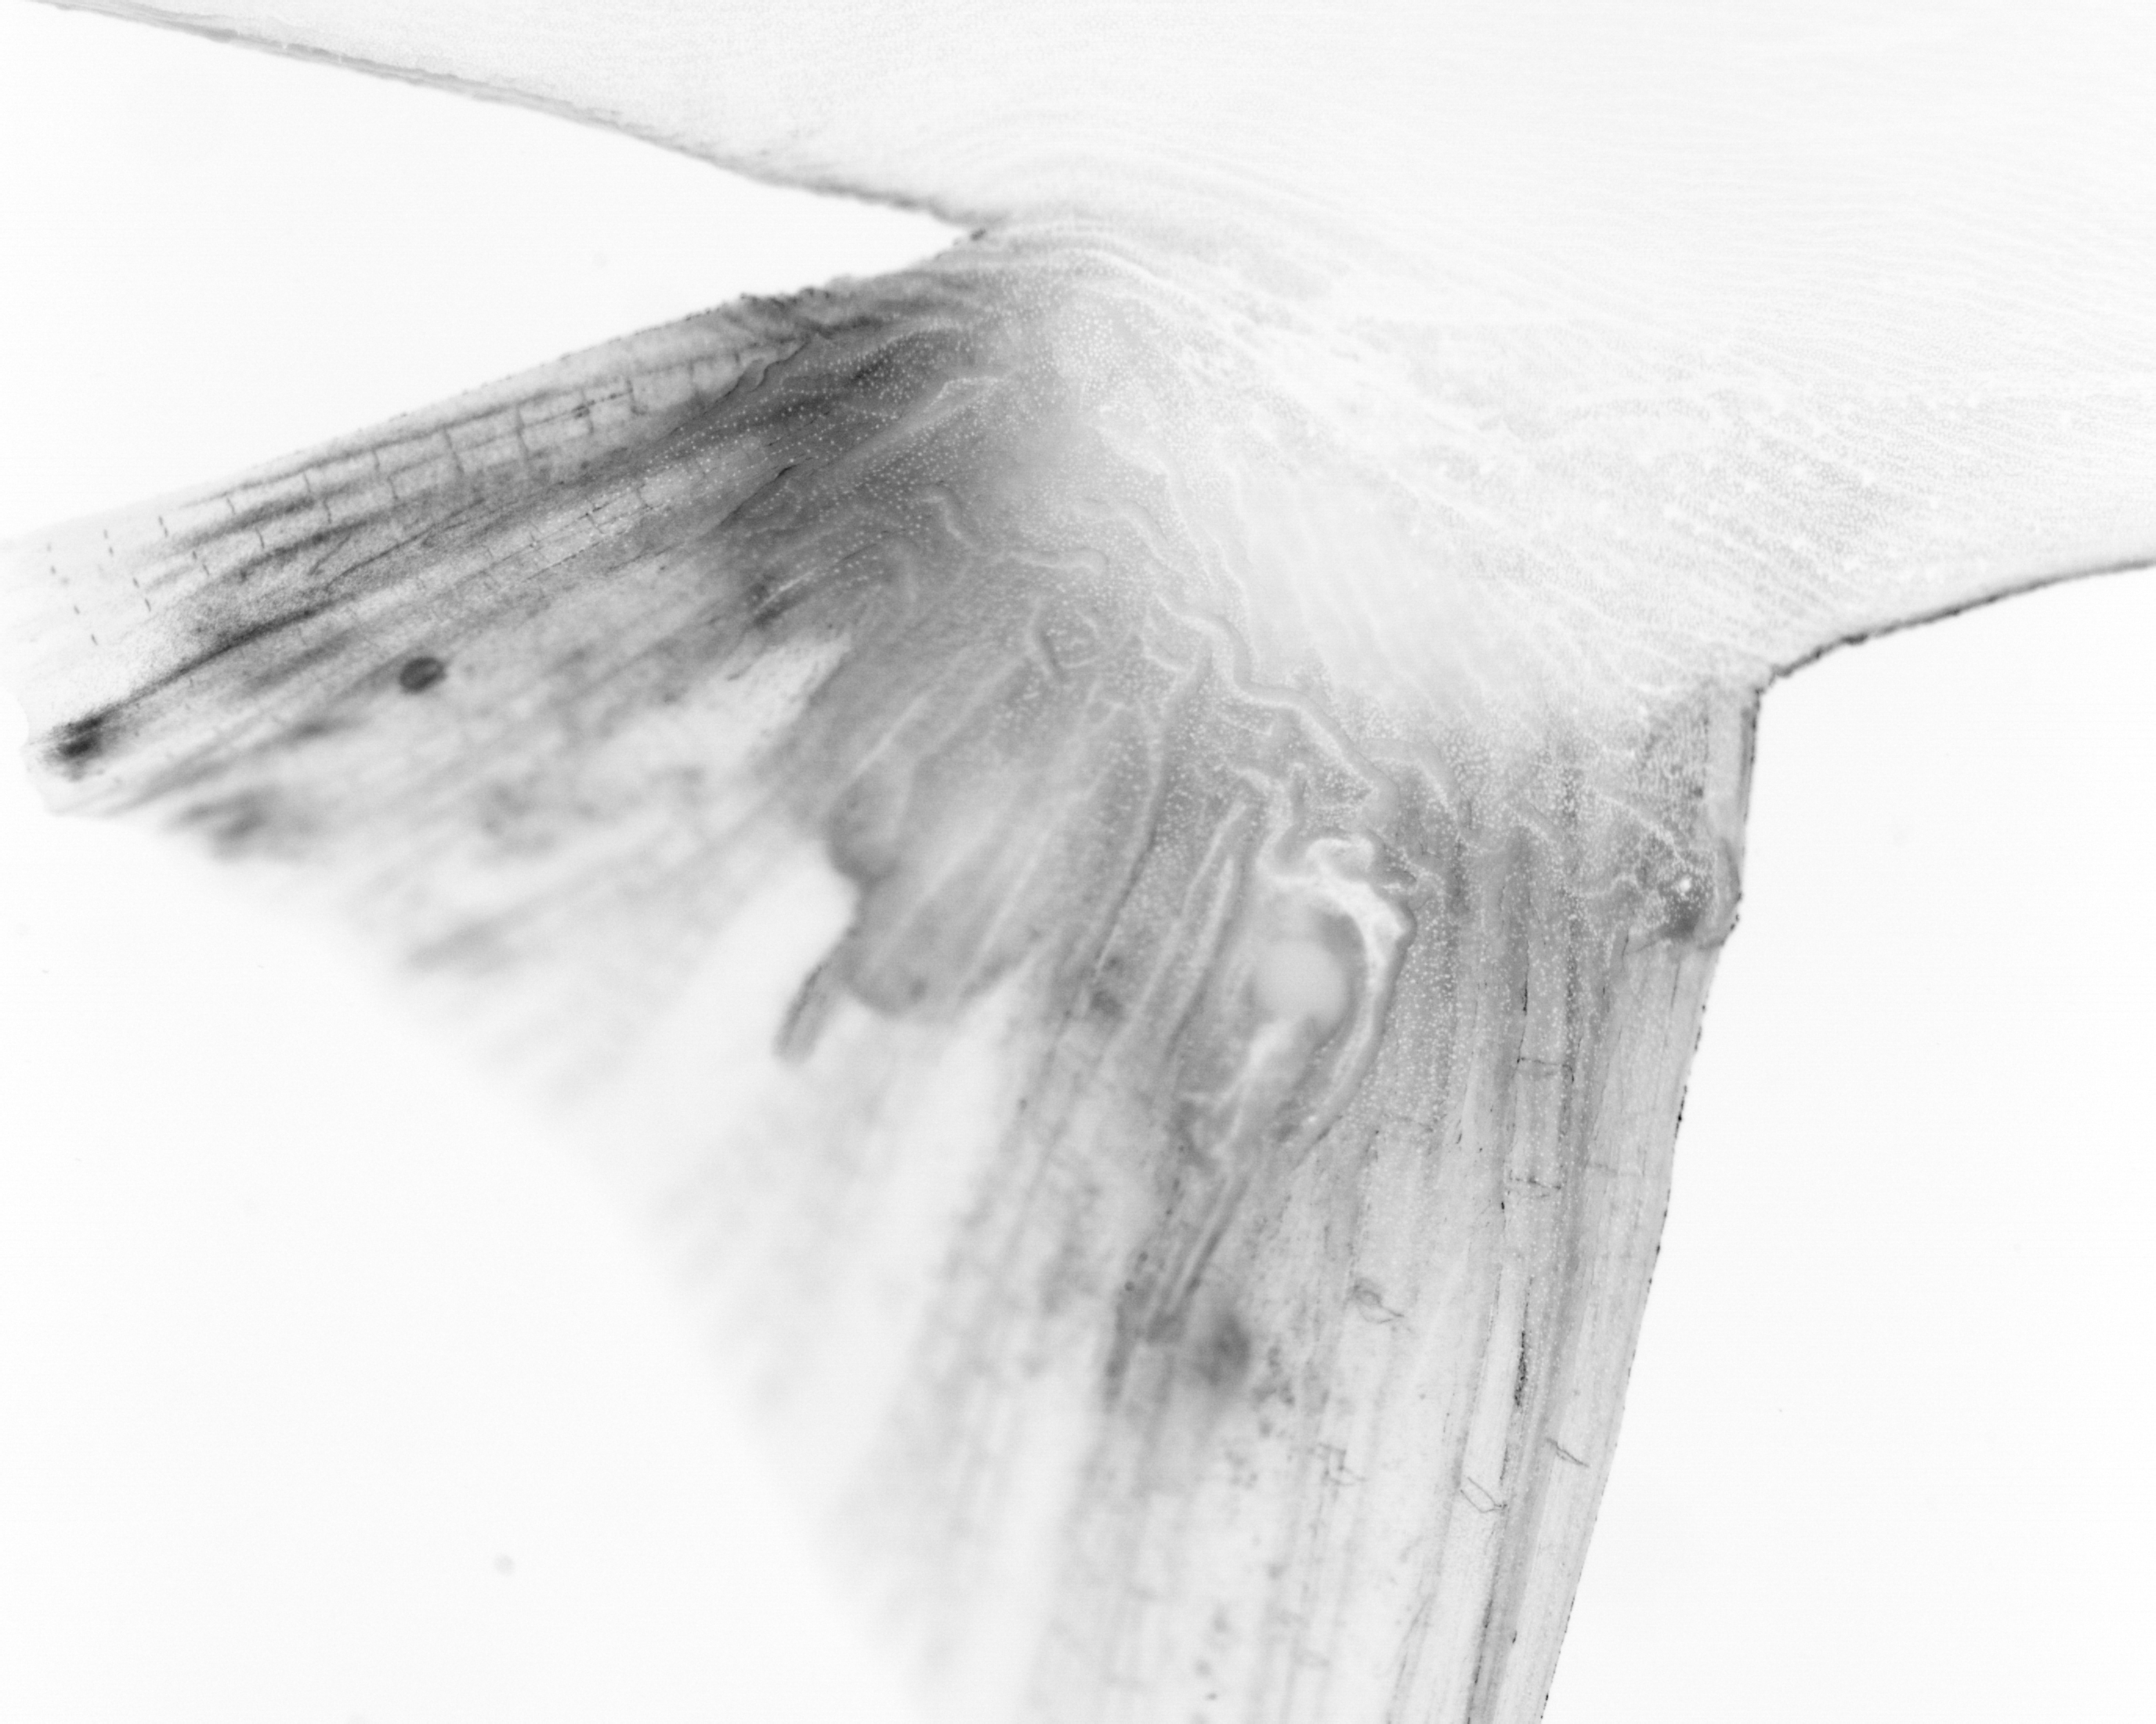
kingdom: Animalia
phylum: Chordata
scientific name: Chordata
